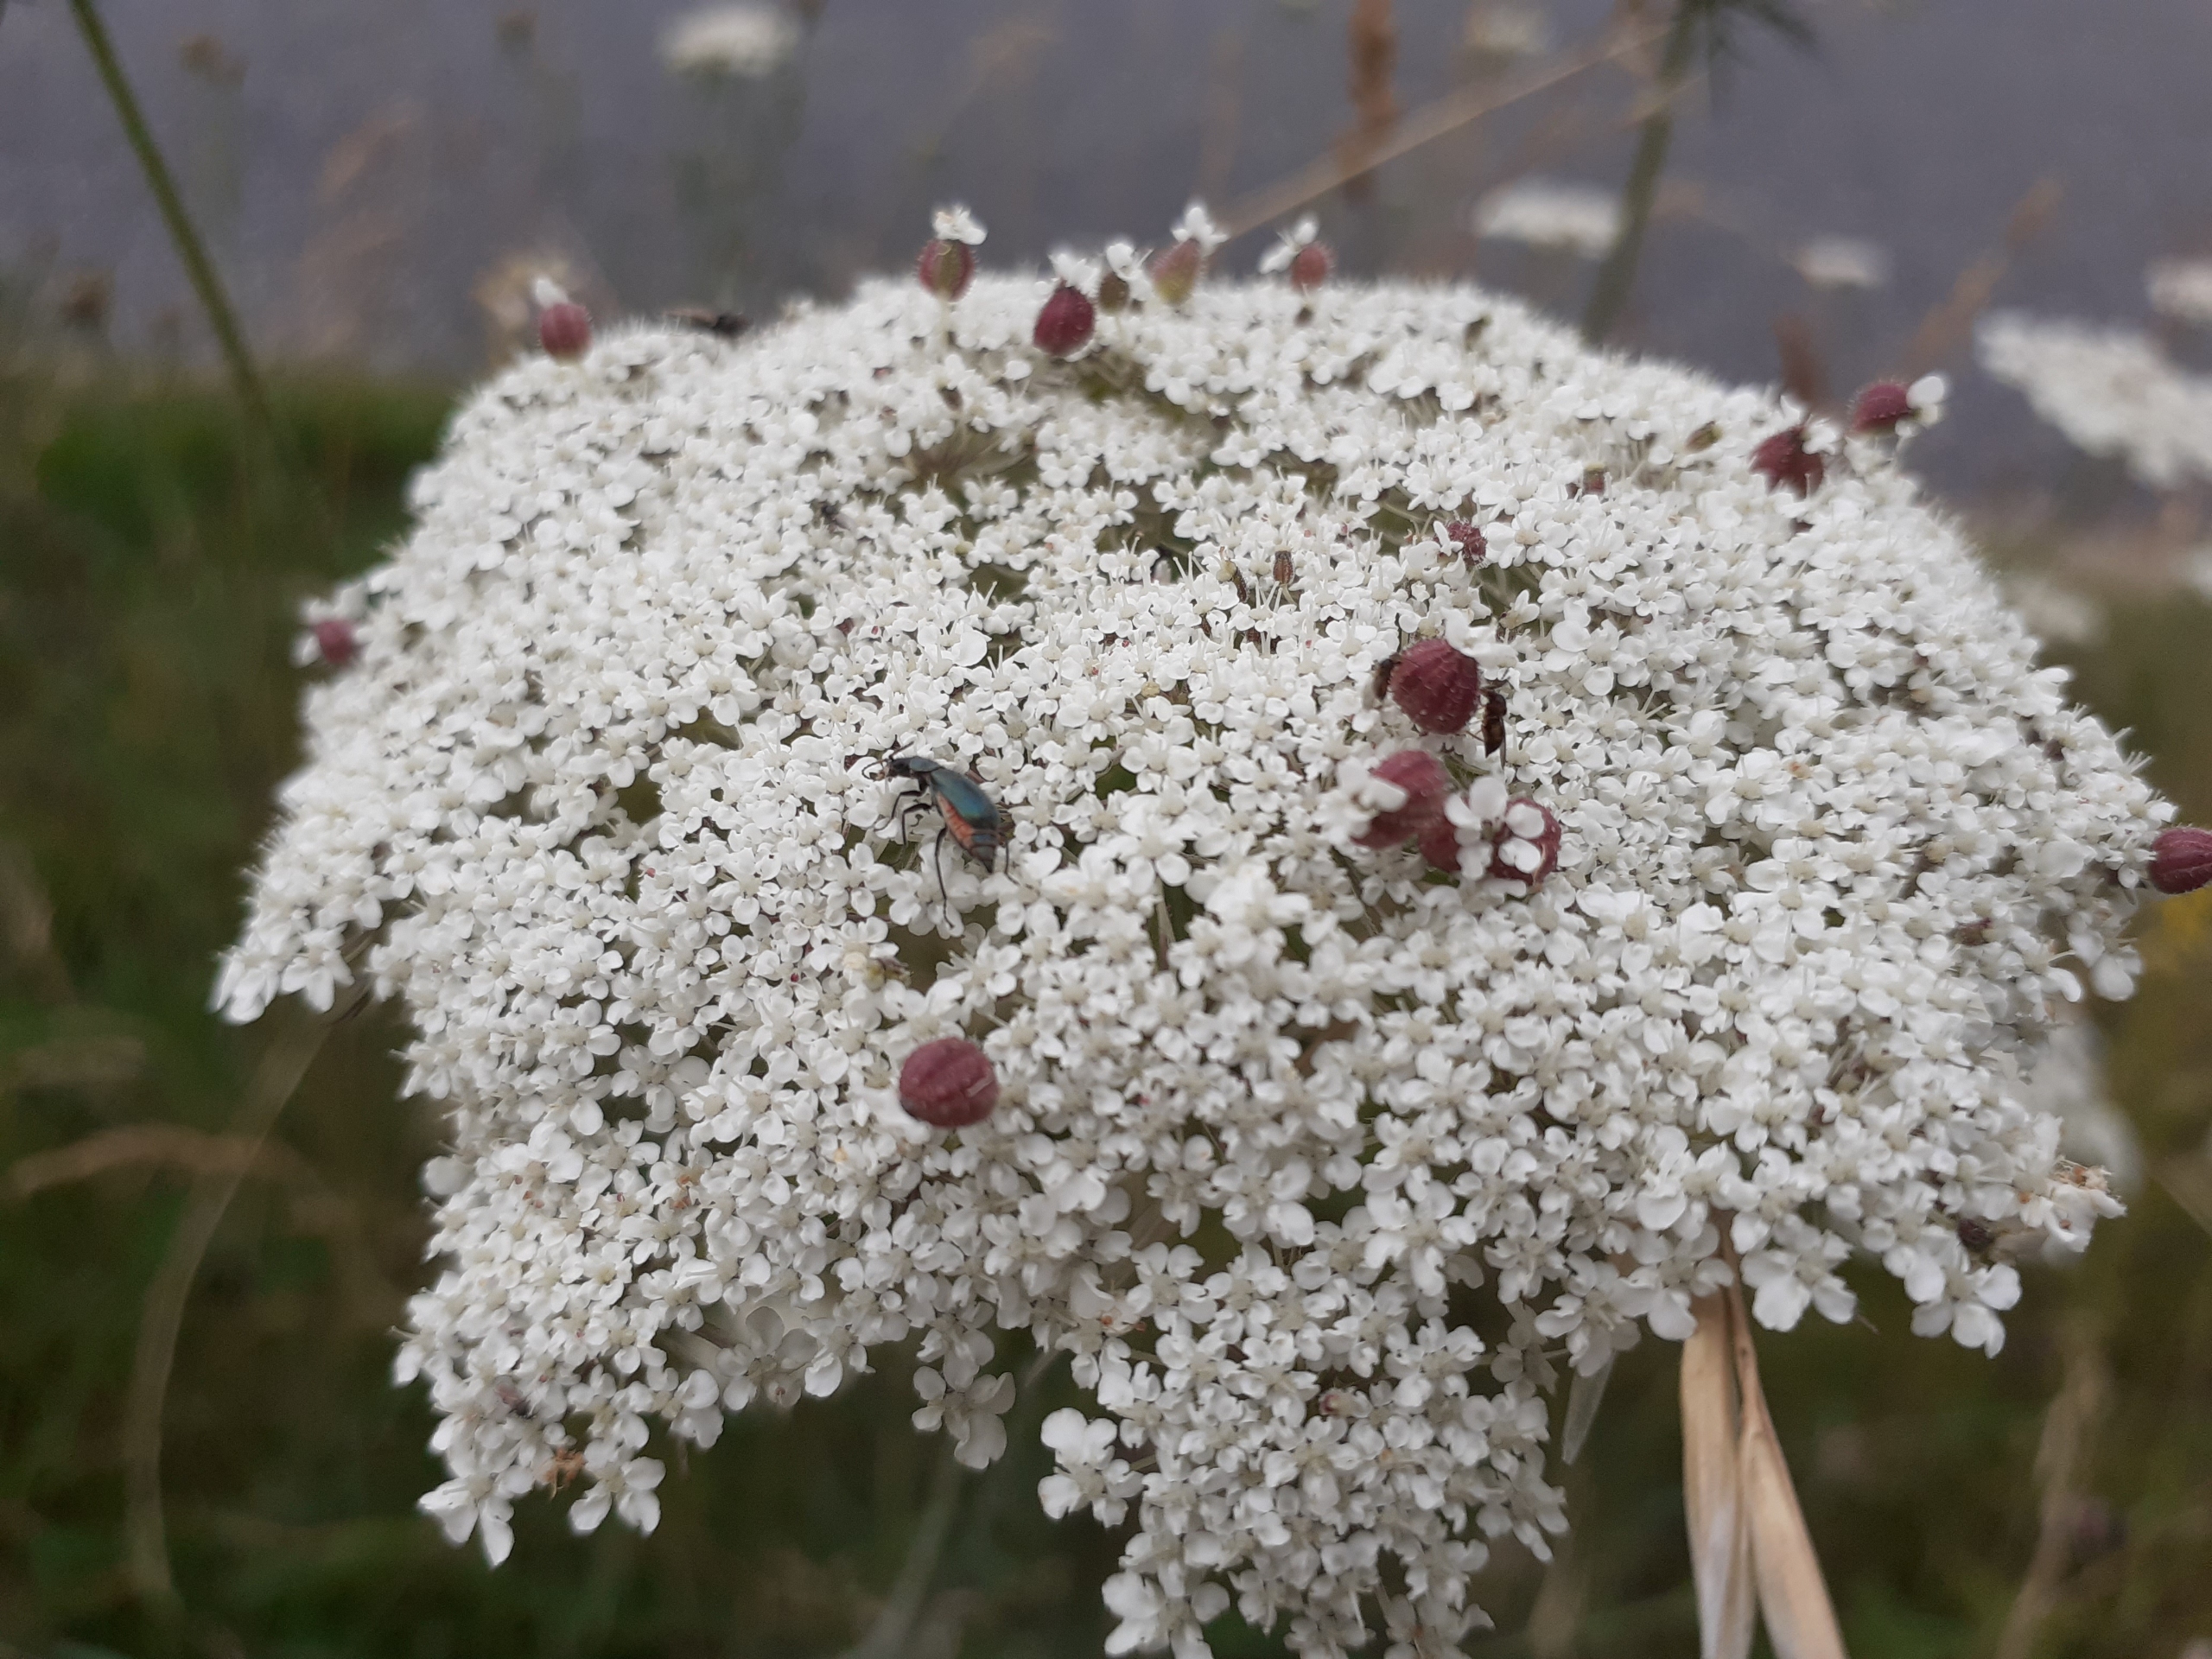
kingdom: Animalia
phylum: Arthropoda
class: Insecta
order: Diptera
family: Cecidomyiidae
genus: Kiefferia
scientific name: Kiefferia pericarpiicola
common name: Gulerodsgalmyg
